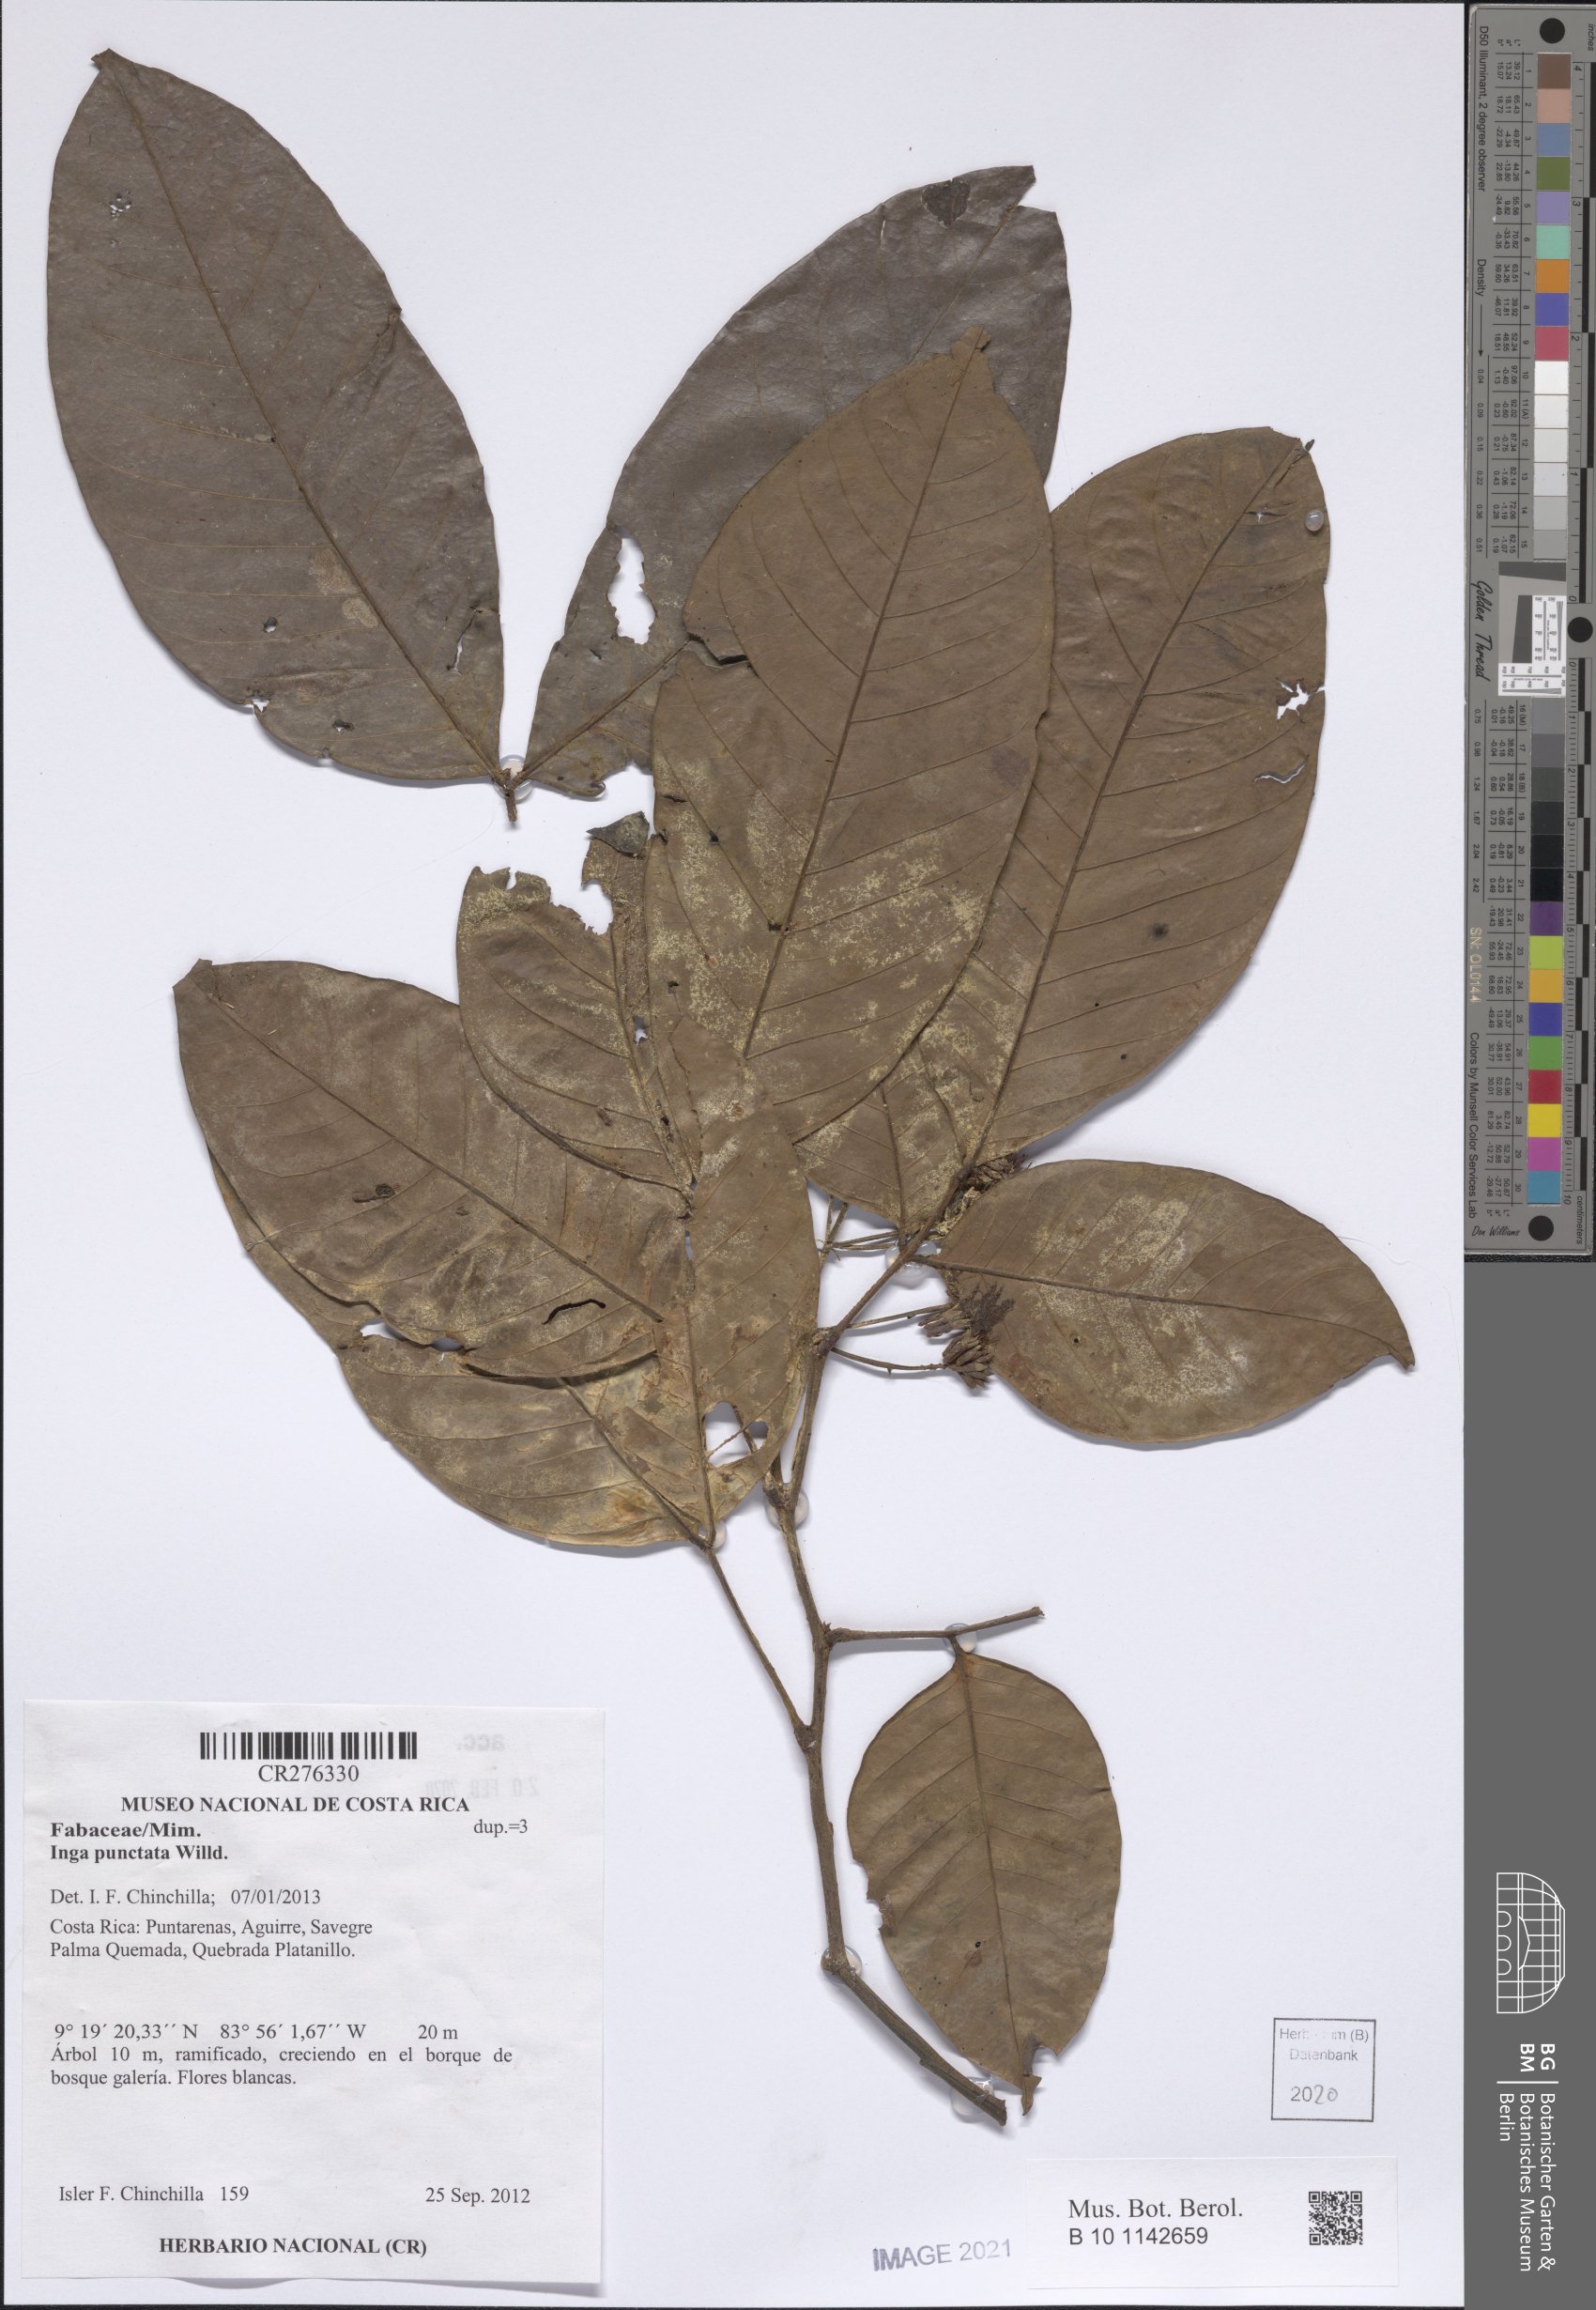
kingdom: Plantae
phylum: Tracheophyta
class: Magnoliopsida
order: Fabales
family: Fabaceae
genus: Inga
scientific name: Inga punctata
